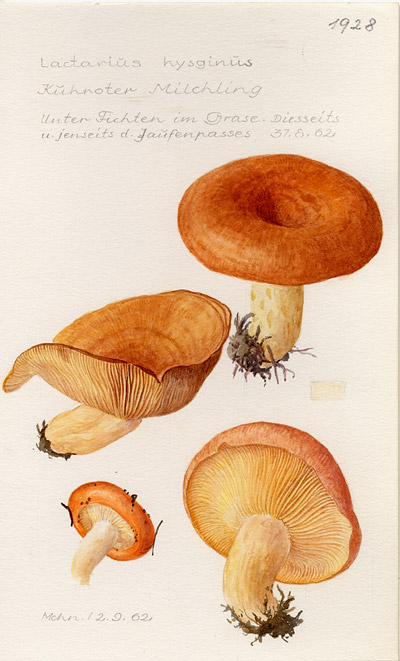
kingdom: Fungi
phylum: Basidiomycota
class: Agaricomycetes
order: Russulales
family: Russulaceae
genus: Lactarius
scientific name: Lactarius hysginus
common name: Dyed milkcap
